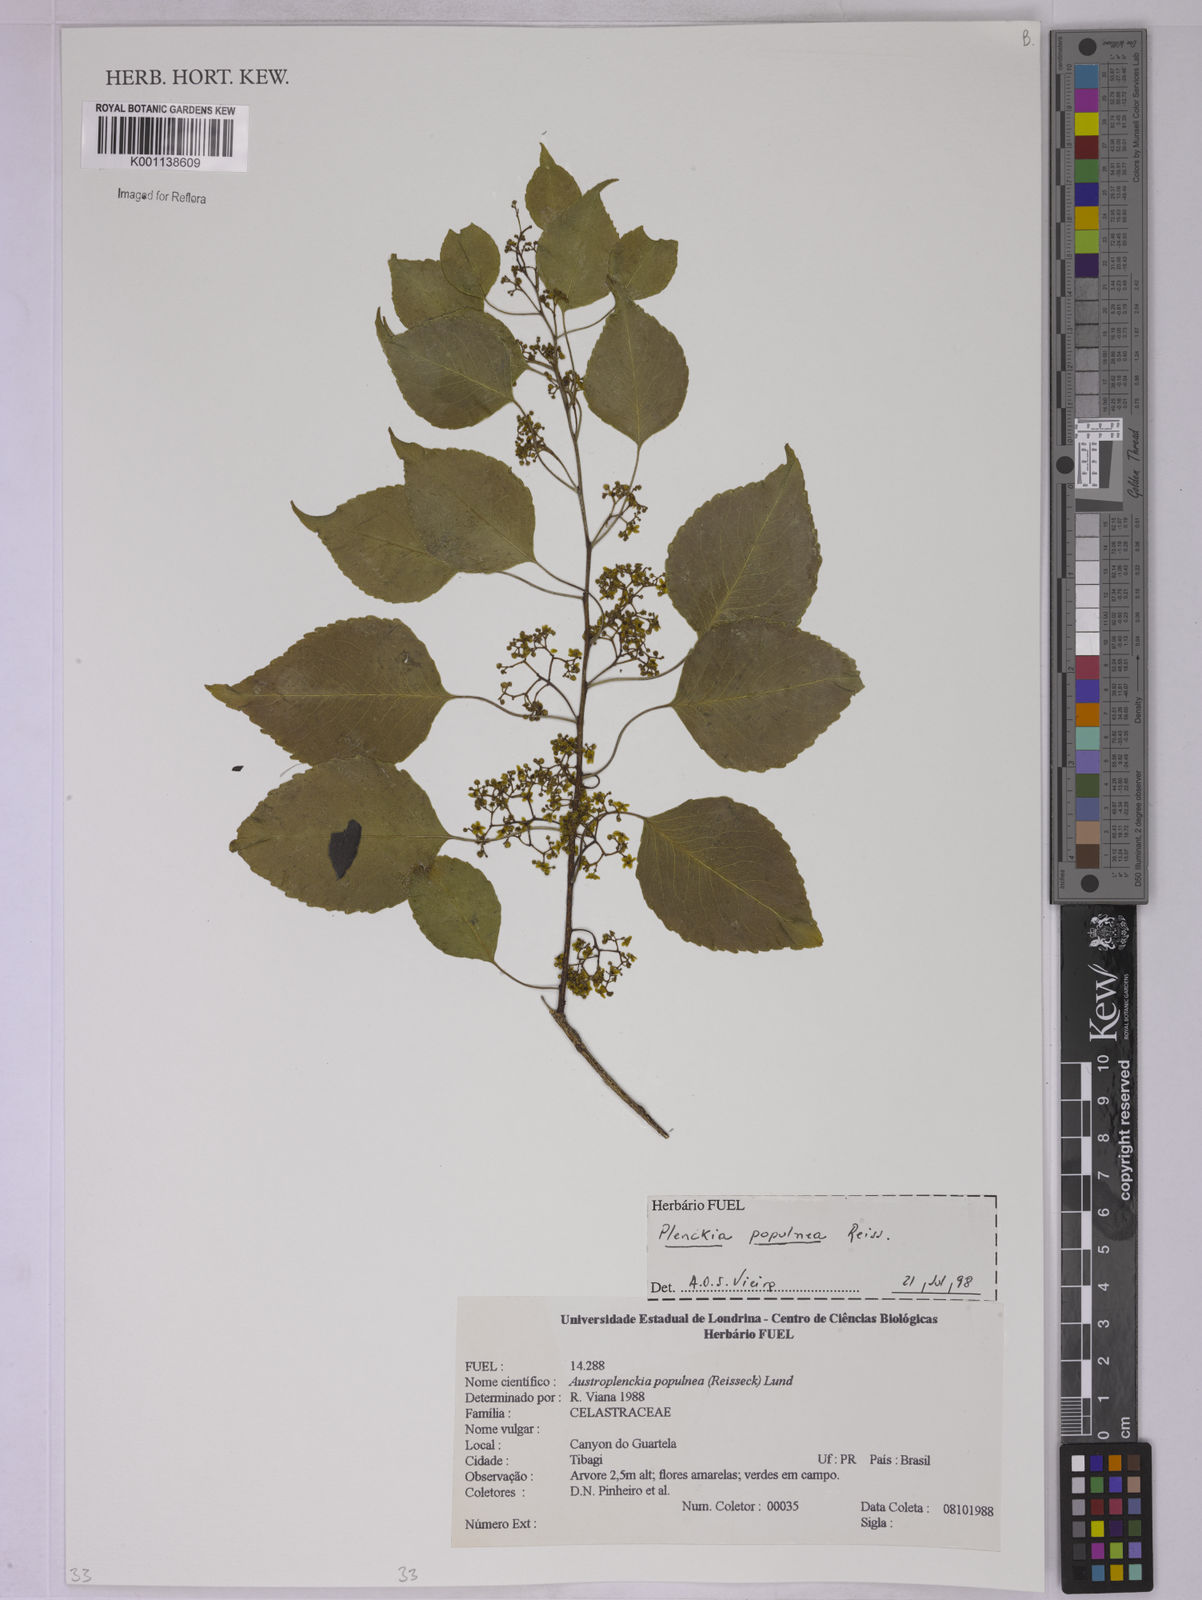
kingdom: Plantae
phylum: Tracheophyta
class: Magnoliopsida
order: Celastrales
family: Celastraceae
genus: Plenckia
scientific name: Plenckia populnea
